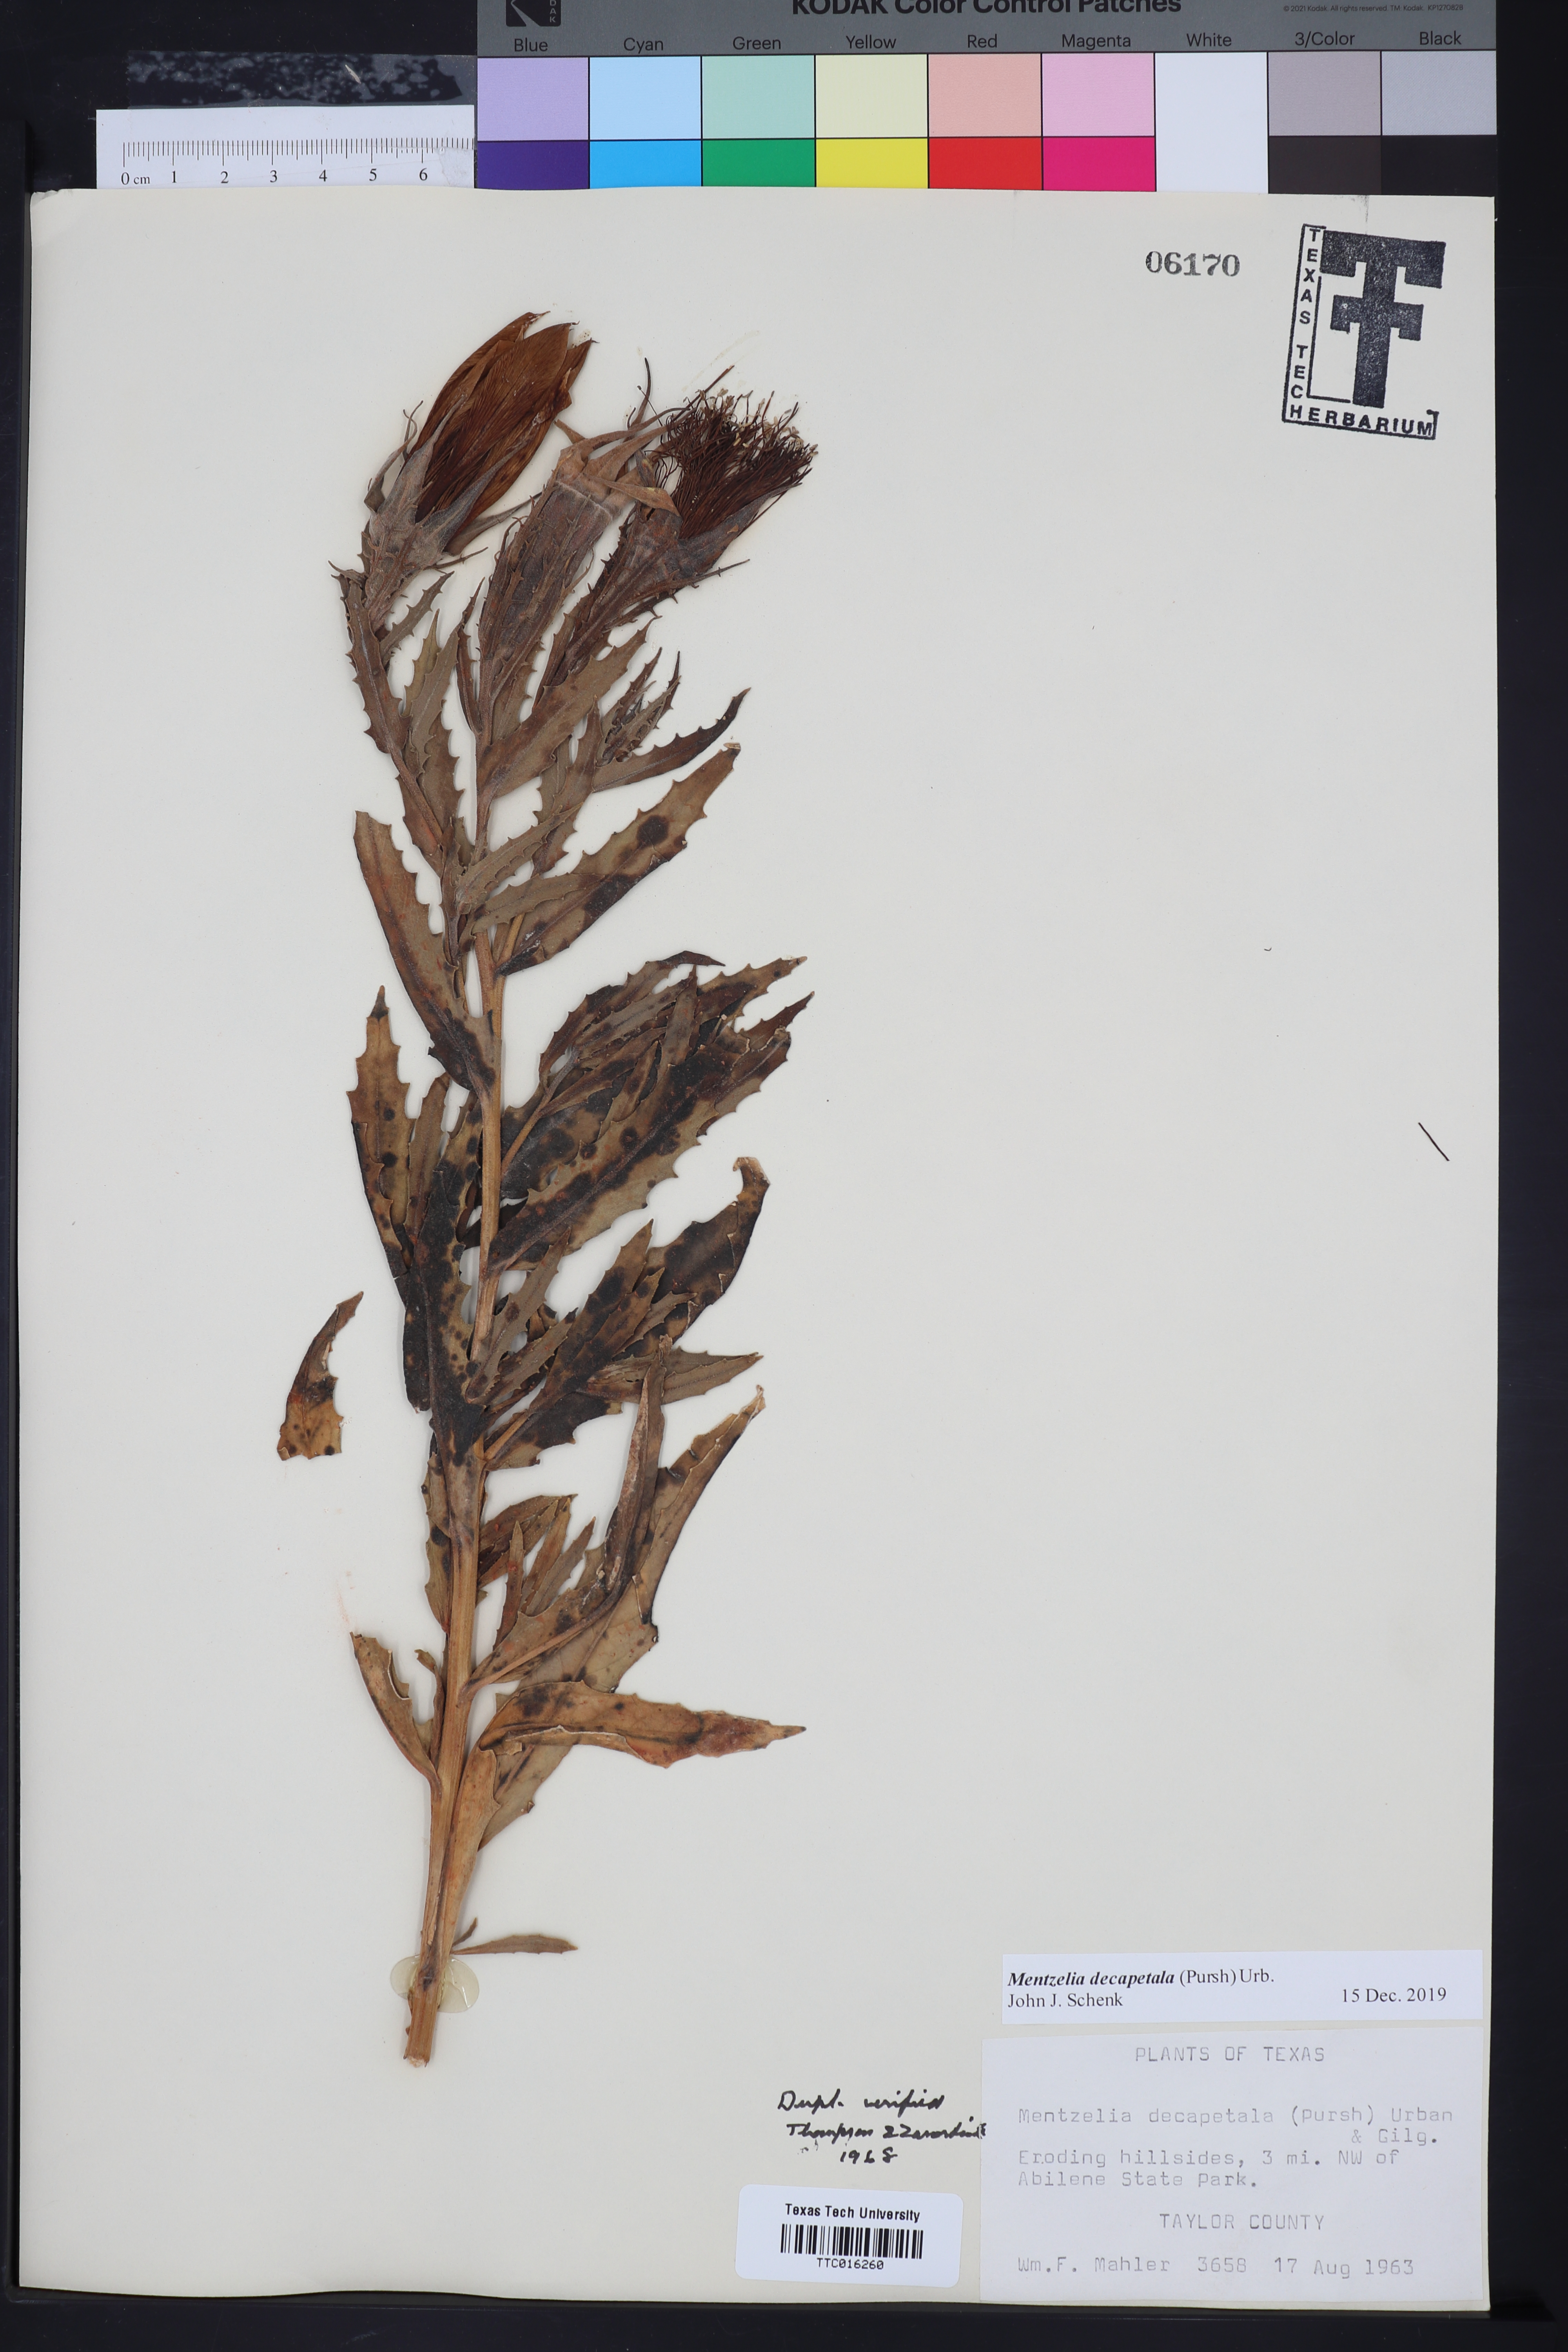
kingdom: Plantae
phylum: Tracheophyta
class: Magnoliopsida
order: Cornales
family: Loasaceae
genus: Mentzelia
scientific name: Mentzelia decapetala
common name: Gumbo-lily
